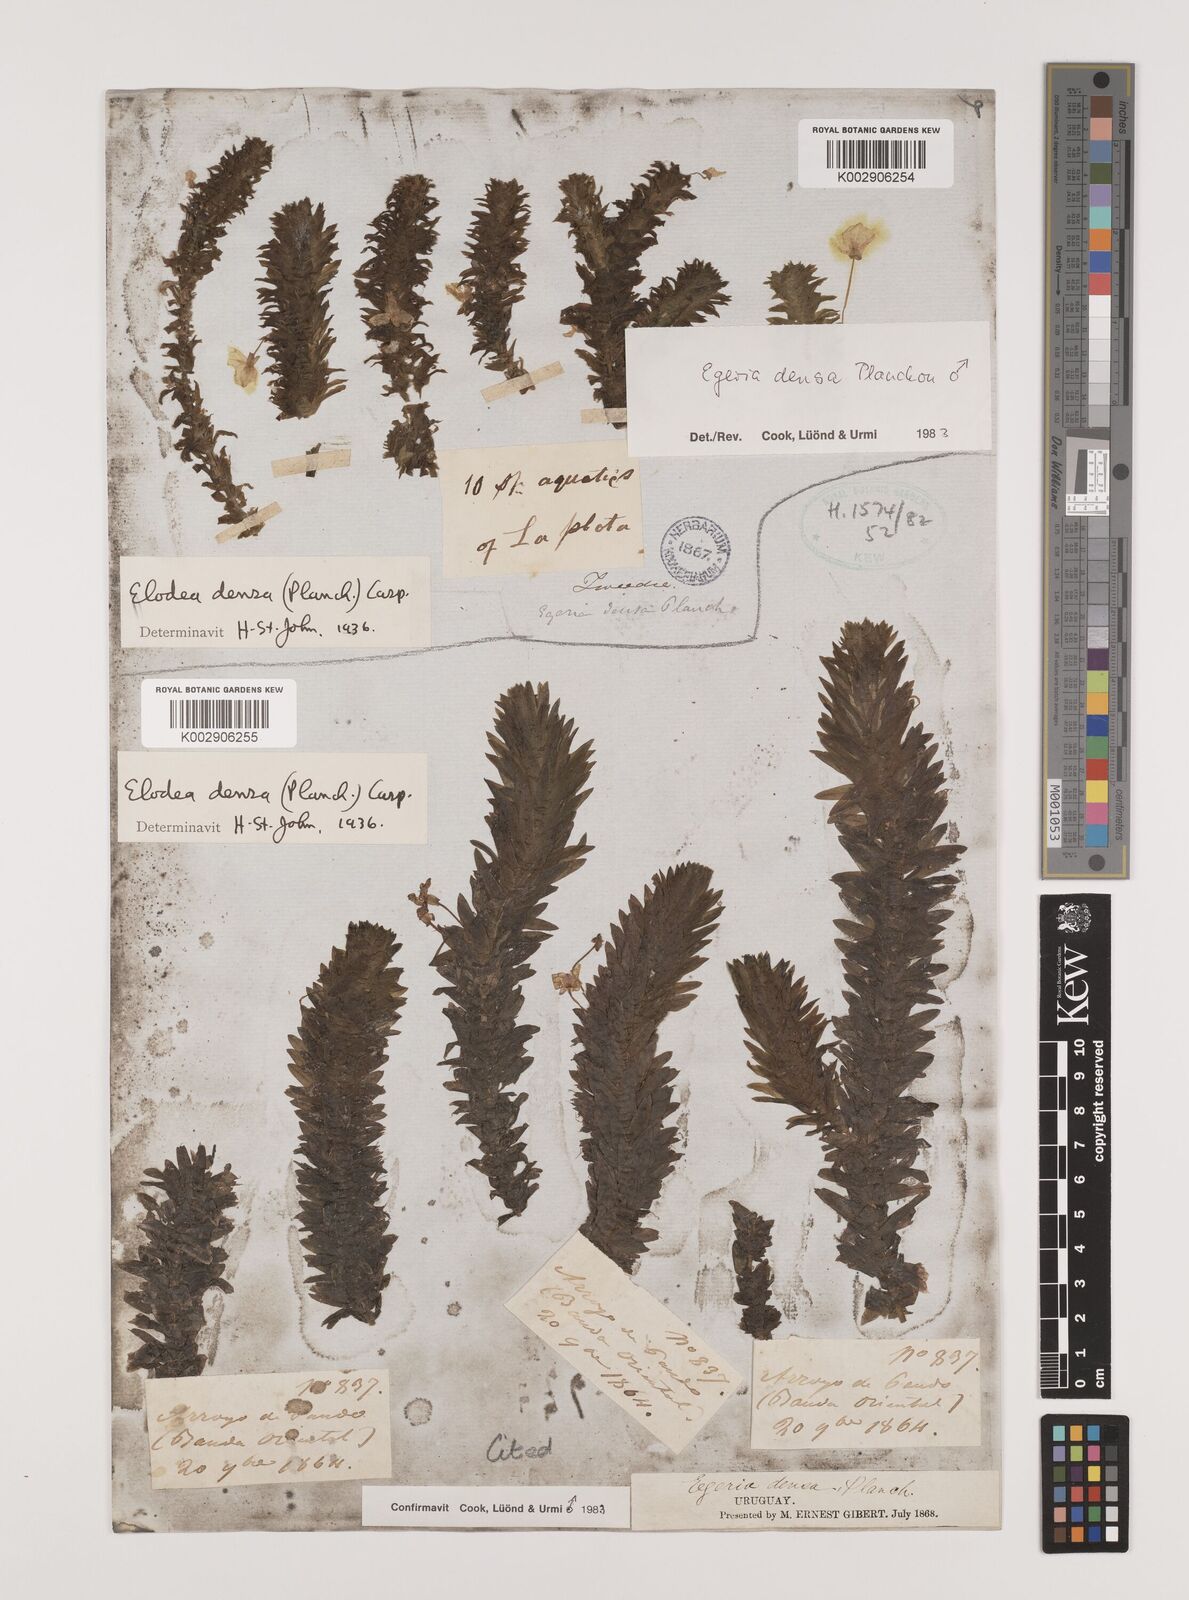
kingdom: Plantae
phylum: Tracheophyta
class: Liliopsida
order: Alismatales
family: Hydrocharitaceae
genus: Elodea
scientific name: Elodea densa
